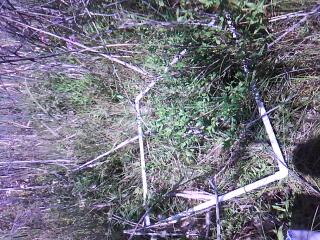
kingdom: Plantae
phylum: Tracheophyta
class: Magnoliopsida
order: Asterales
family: Asteraceae
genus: Eutrochium
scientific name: Eutrochium maculatum
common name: Spotted joe pye weed
